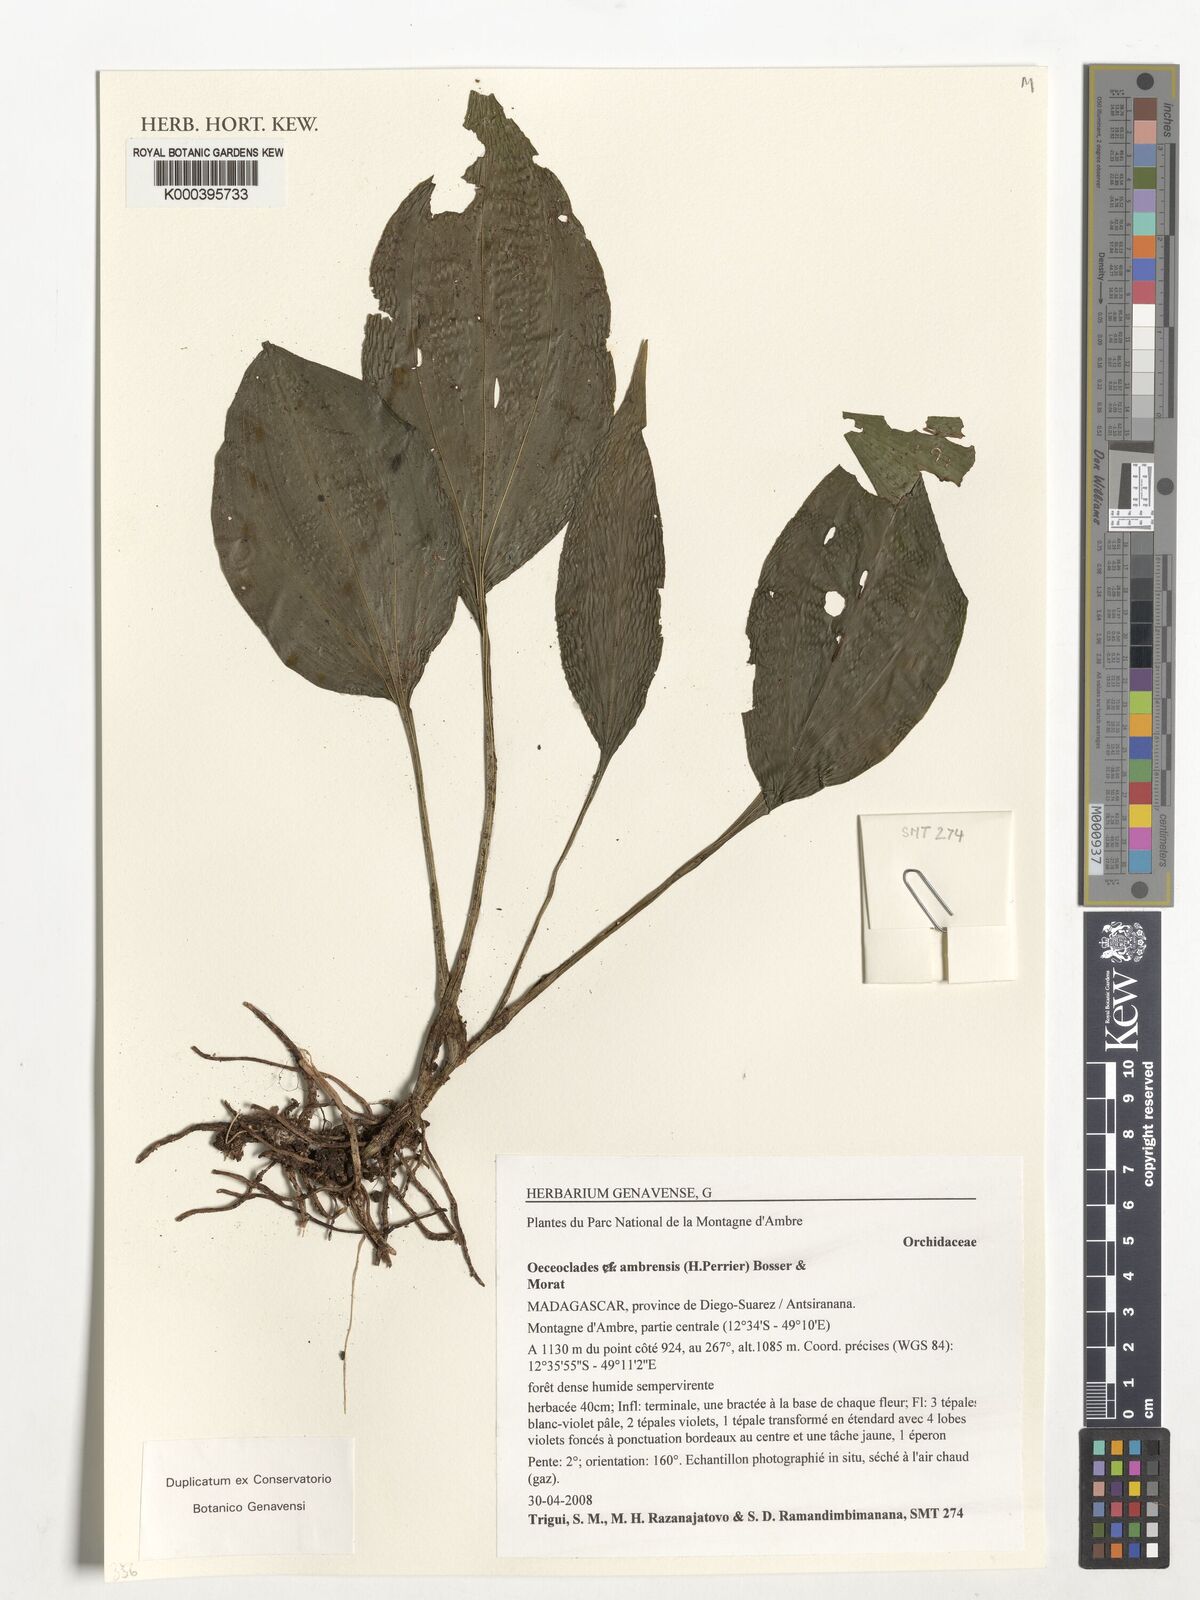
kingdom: Plantae
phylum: Tracheophyta
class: Liliopsida
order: Asparagales
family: Orchidaceae
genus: Eulophia
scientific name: Eulophia ambrensis
